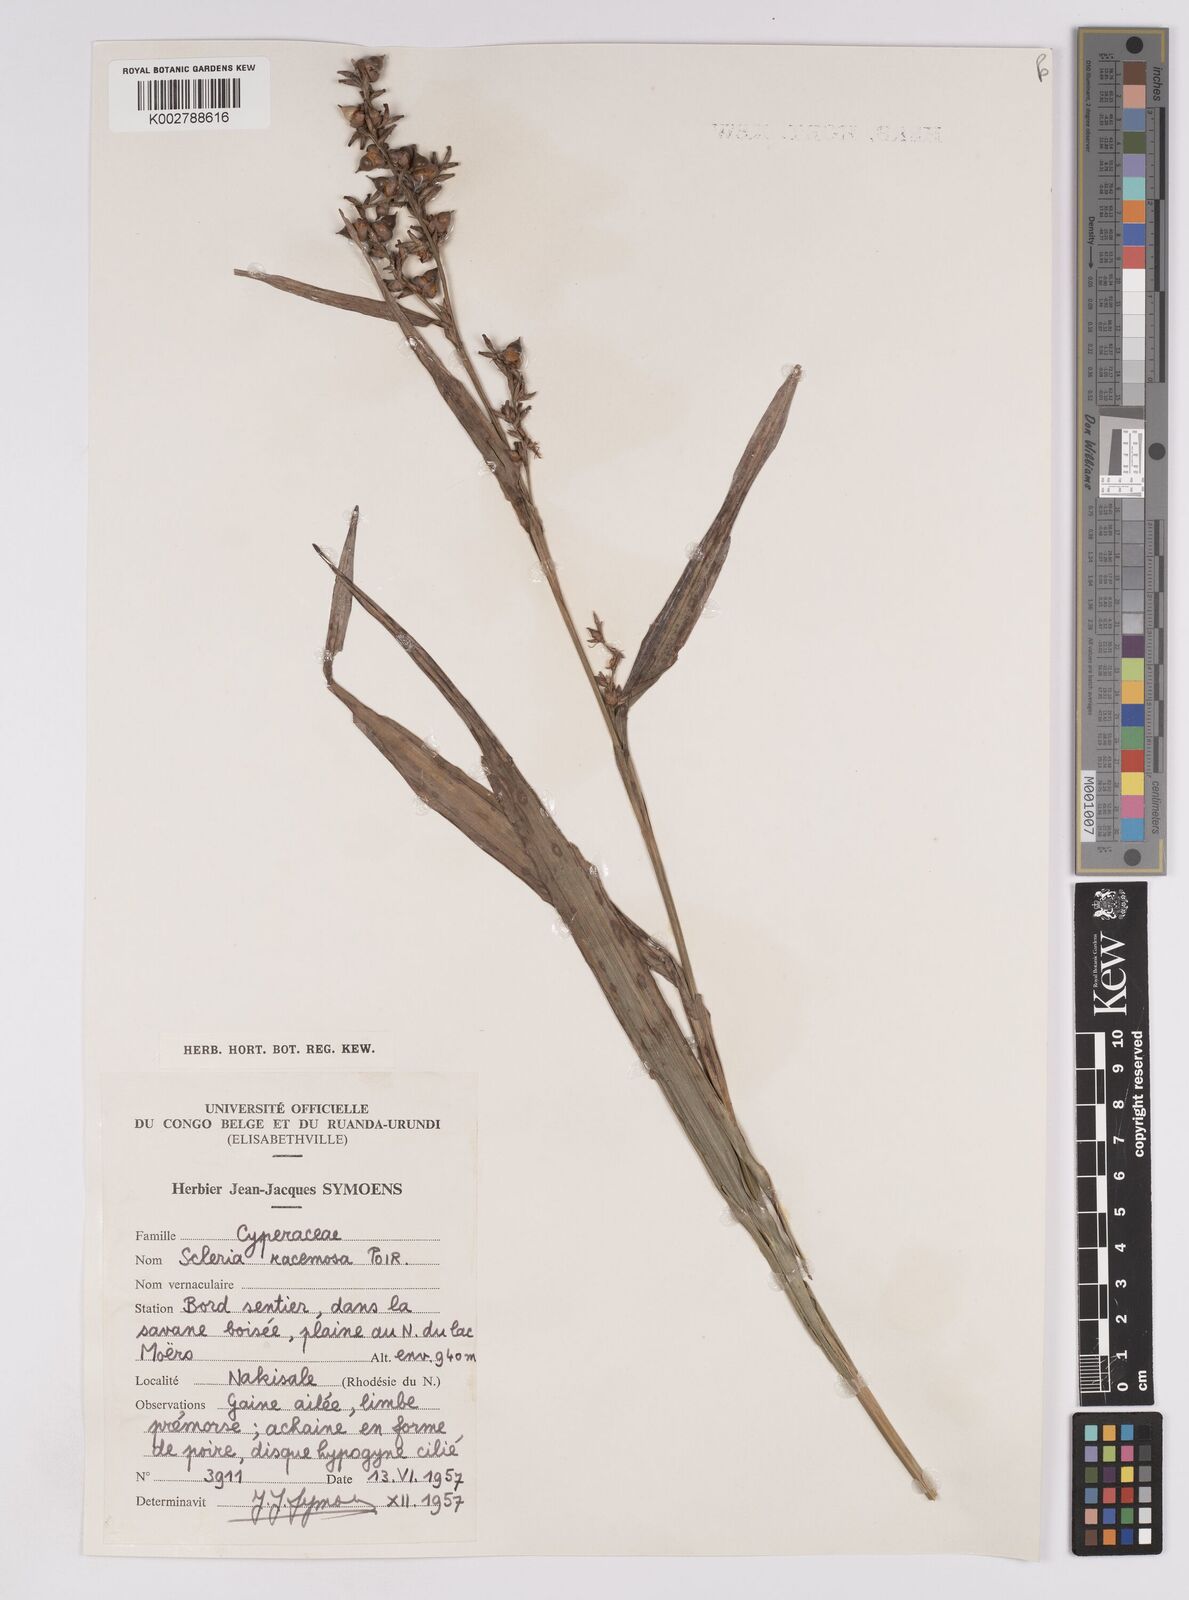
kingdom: Plantae
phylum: Tracheophyta
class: Liliopsida
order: Poales
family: Cyperaceae
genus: Scleria
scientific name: Scleria racemosa
